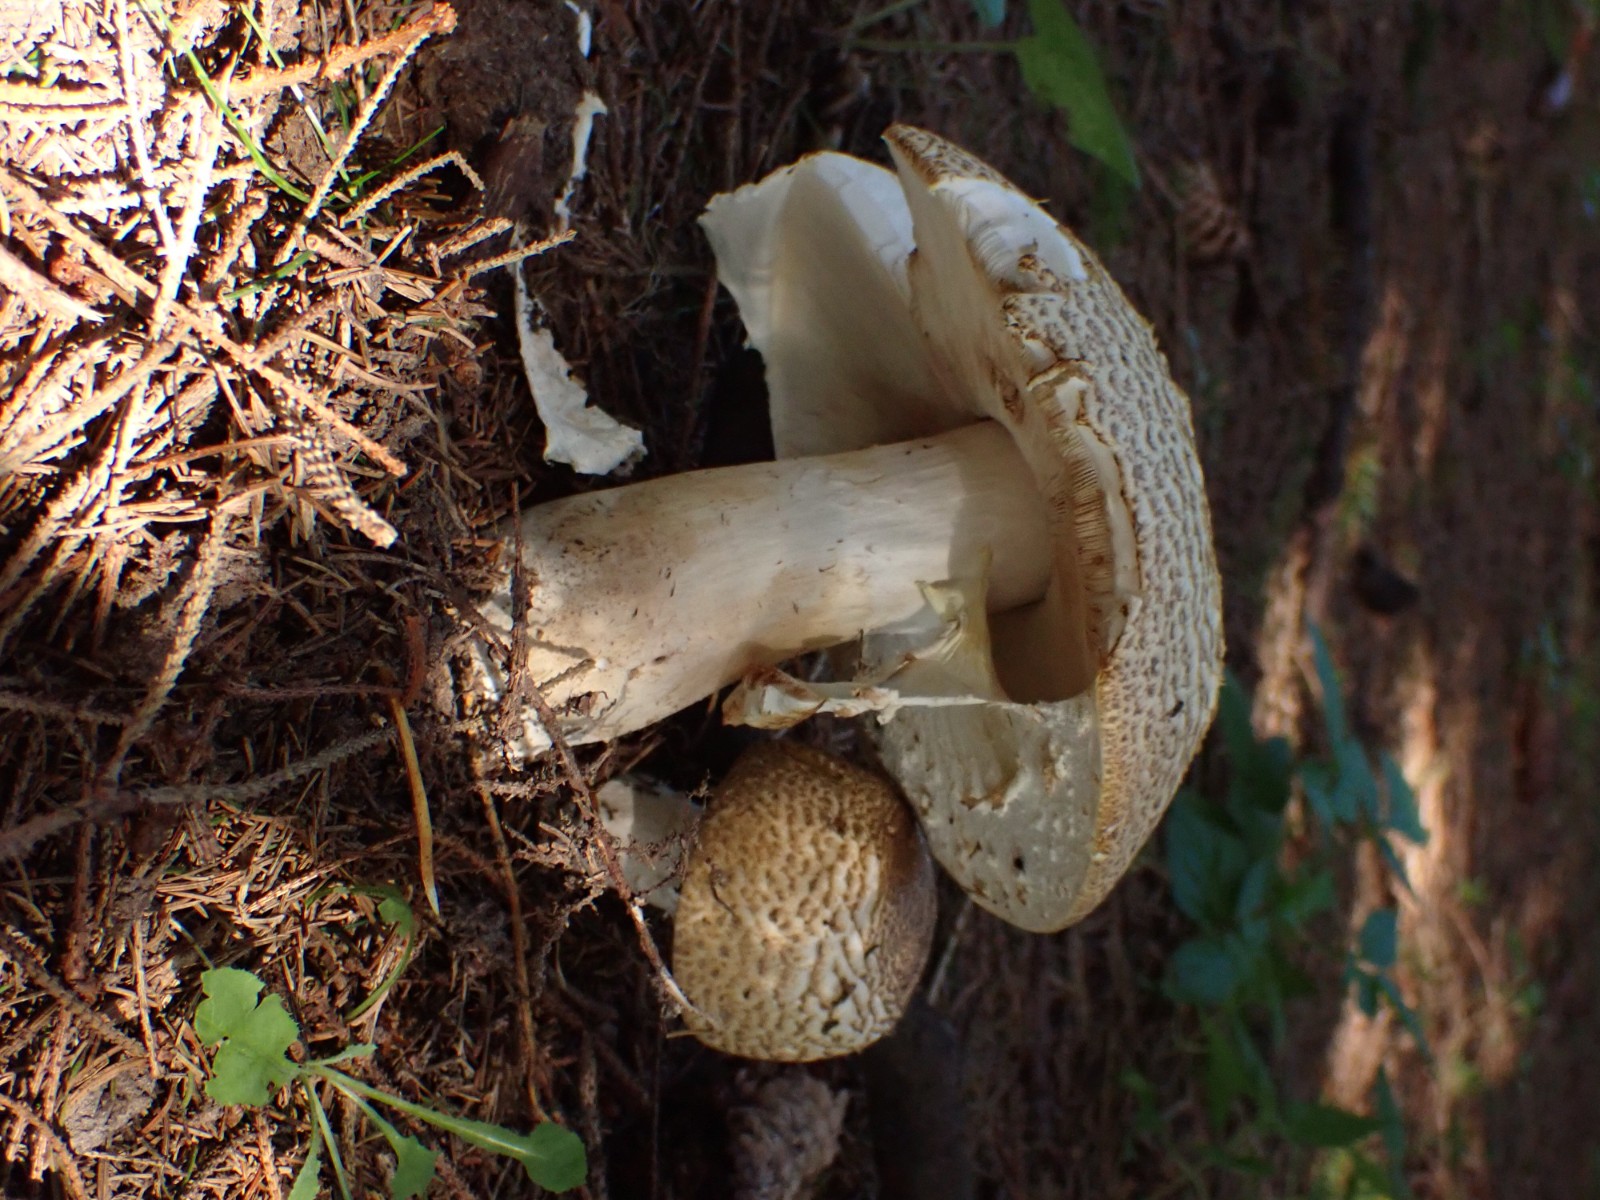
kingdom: Fungi
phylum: Basidiomycota
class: Agaricomycetes
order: Agaricales
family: Agaricaceae
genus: Agaricus
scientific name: Agaricus augustus
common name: prægtig champignon
